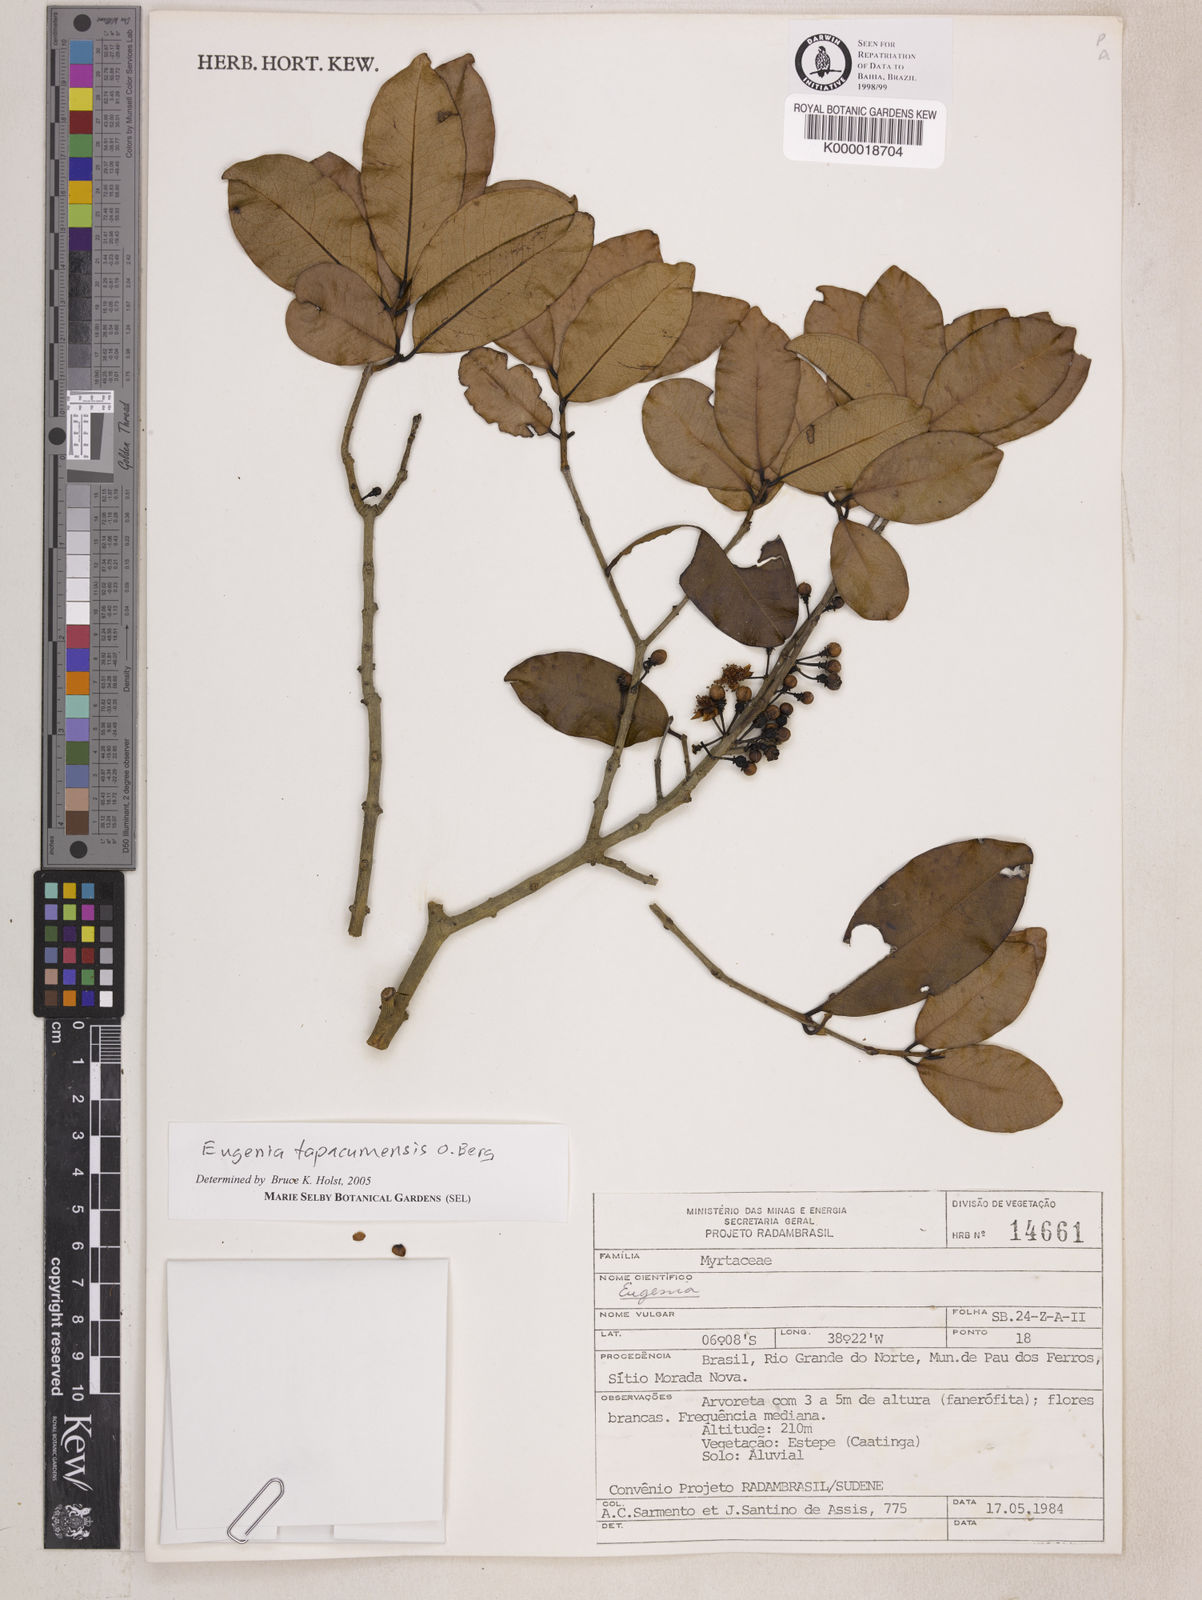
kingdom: Plantae
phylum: Tracheophyta
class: Magnoliopsida
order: Myrtales
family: Myrtaceae
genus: Eugenia
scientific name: Eugenia tapacumensis
